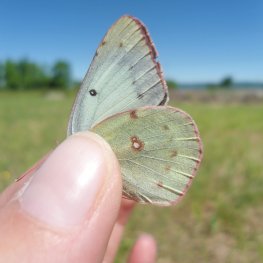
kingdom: Animalia
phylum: Arthropoda
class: Insecta
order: Lepidoptera
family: Pieridae
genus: Colias
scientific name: Colias philodice
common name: Clouded Sulphur
